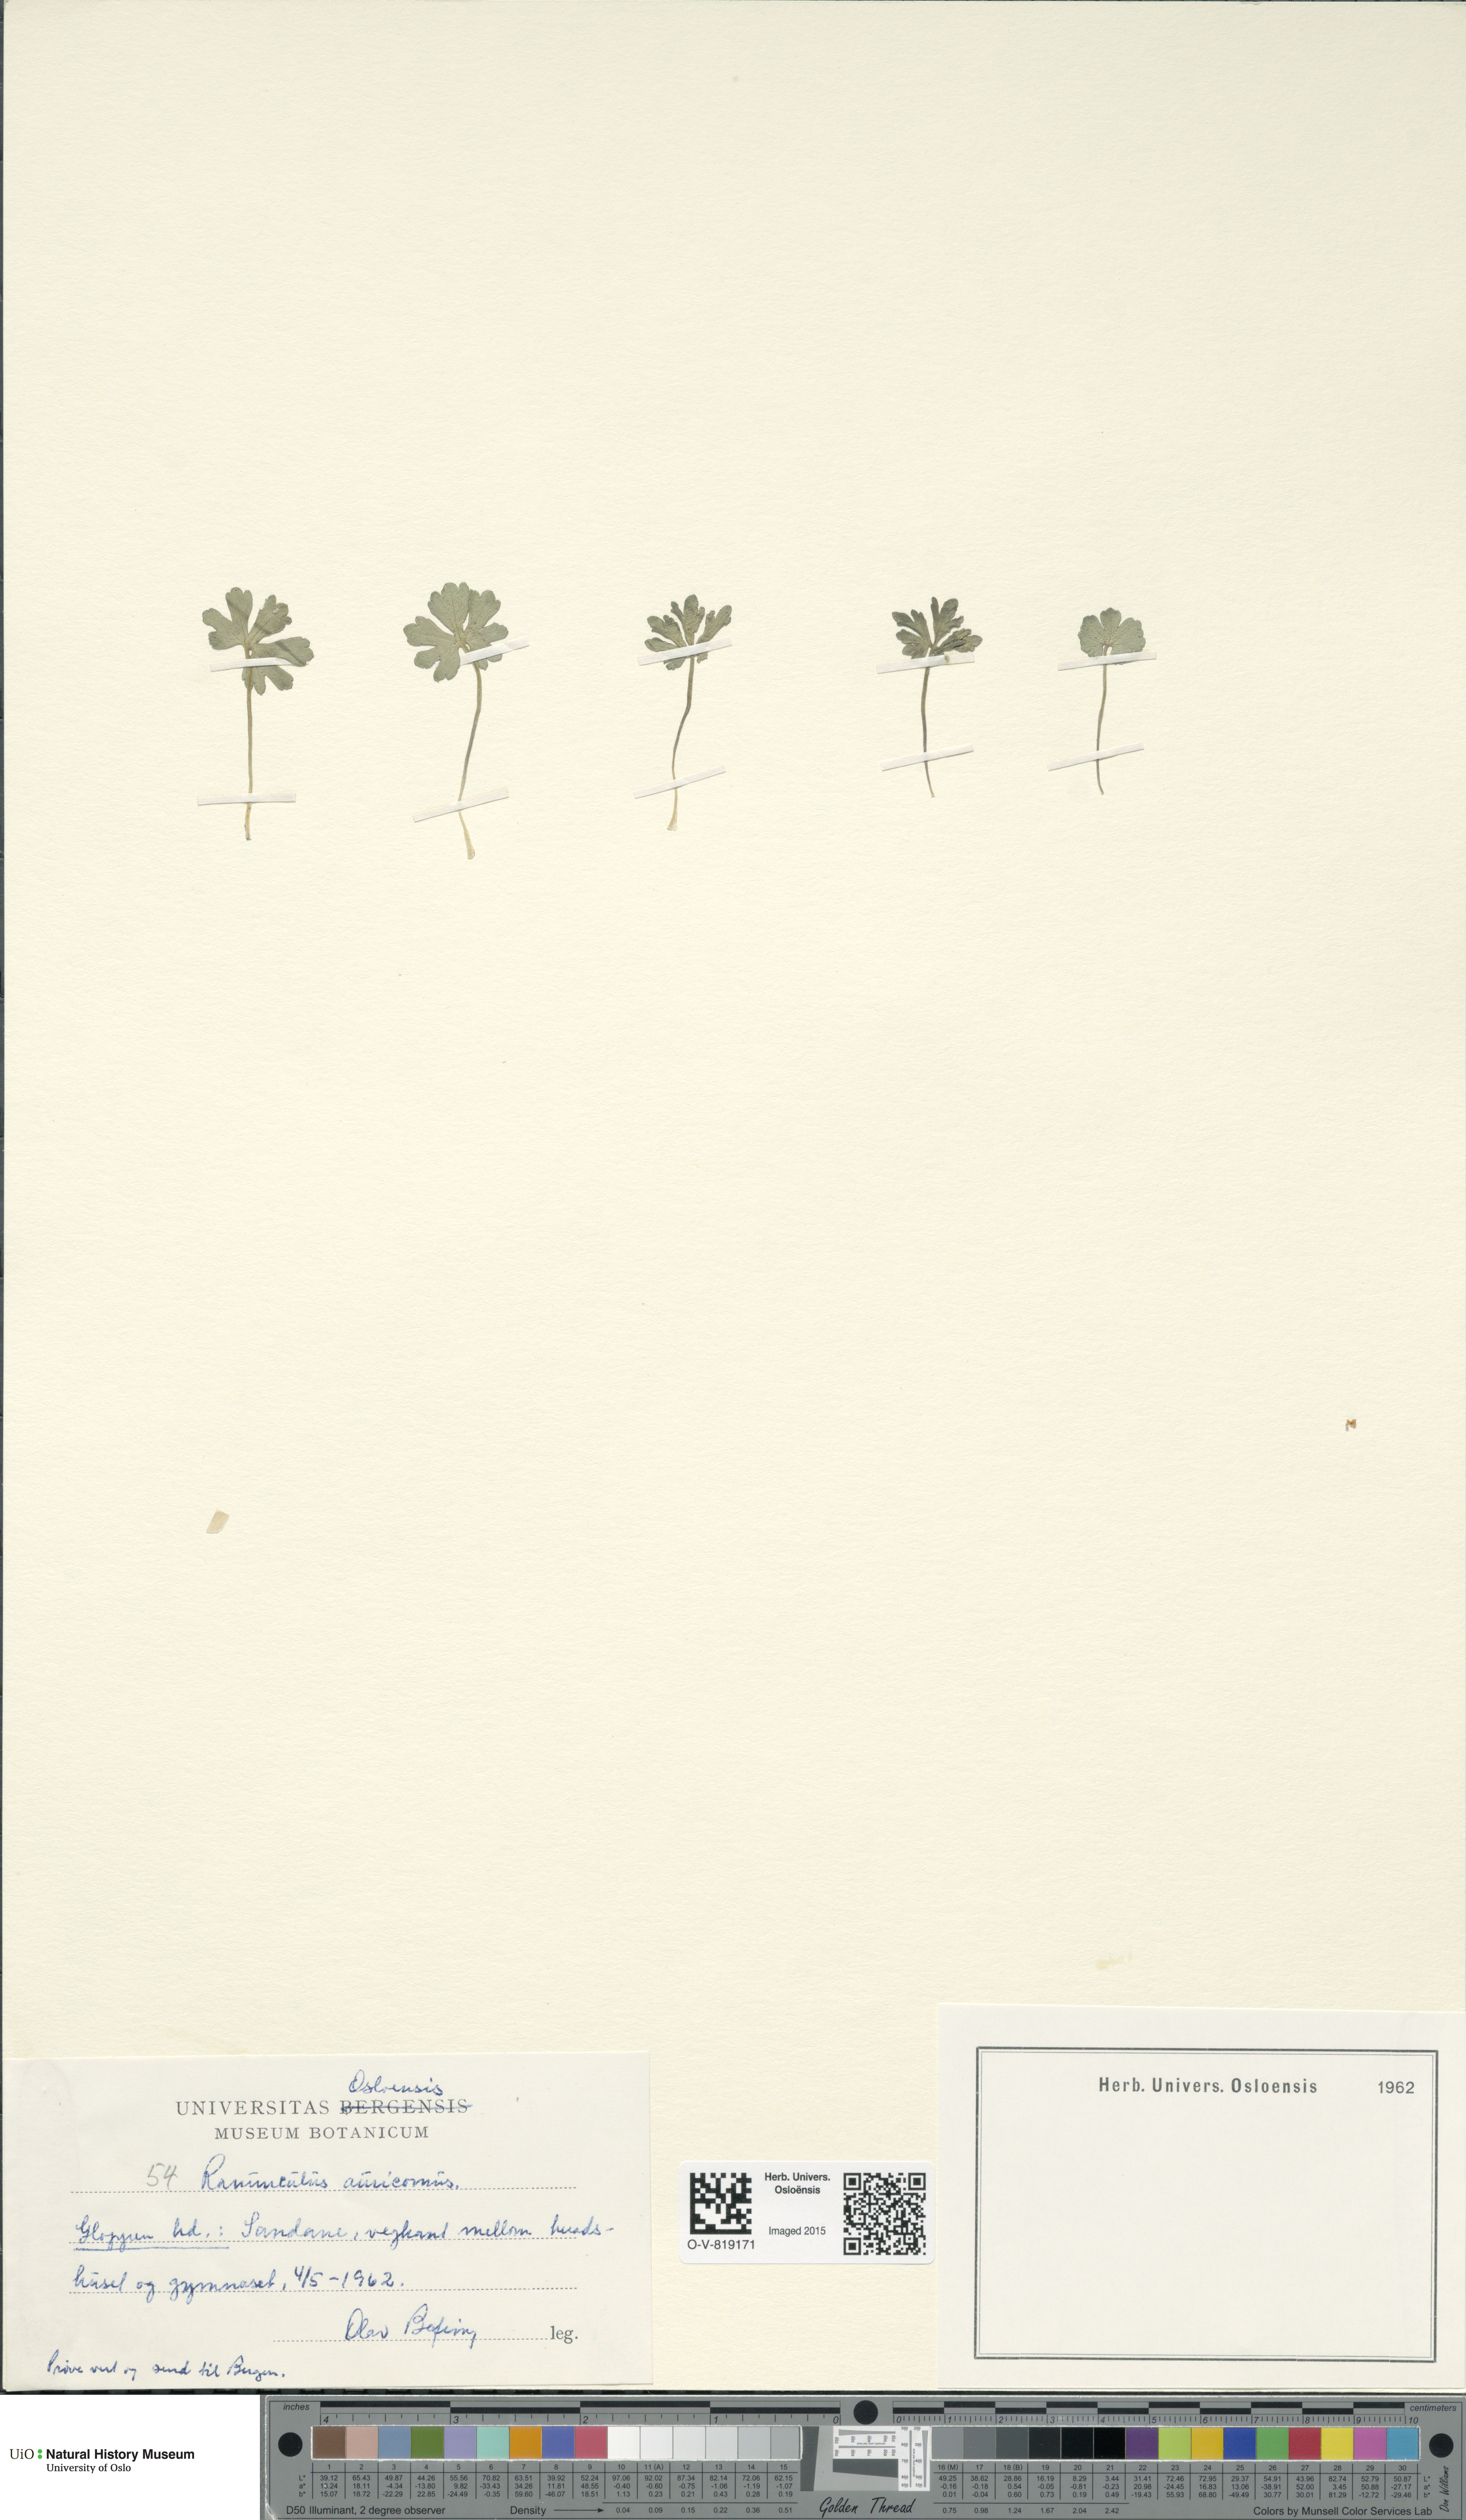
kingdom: Plantae
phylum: Tracheophyta
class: Magnoliopsida
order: Ranunculales
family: Ranunculaceae
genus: Ranunculus
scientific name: Ranunculus auricomus
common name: Goldilocks buttercup
